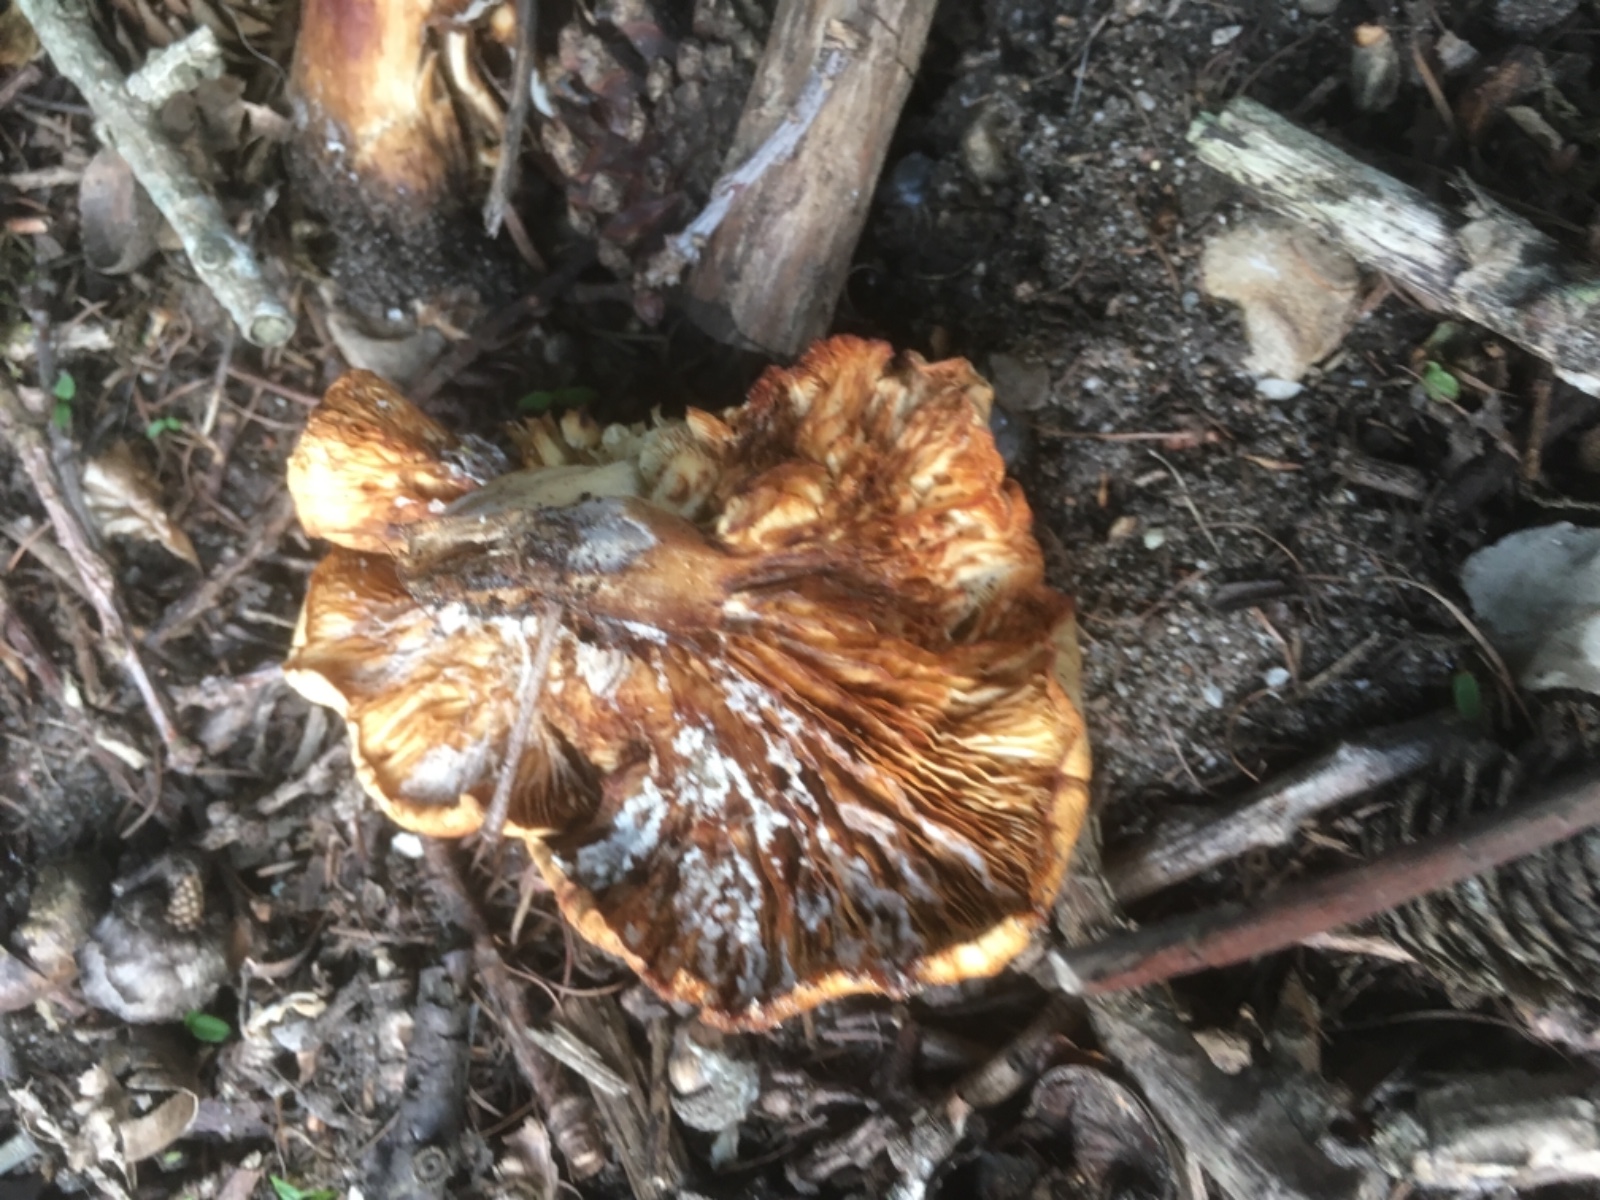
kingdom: Fungi
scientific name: Fungi
